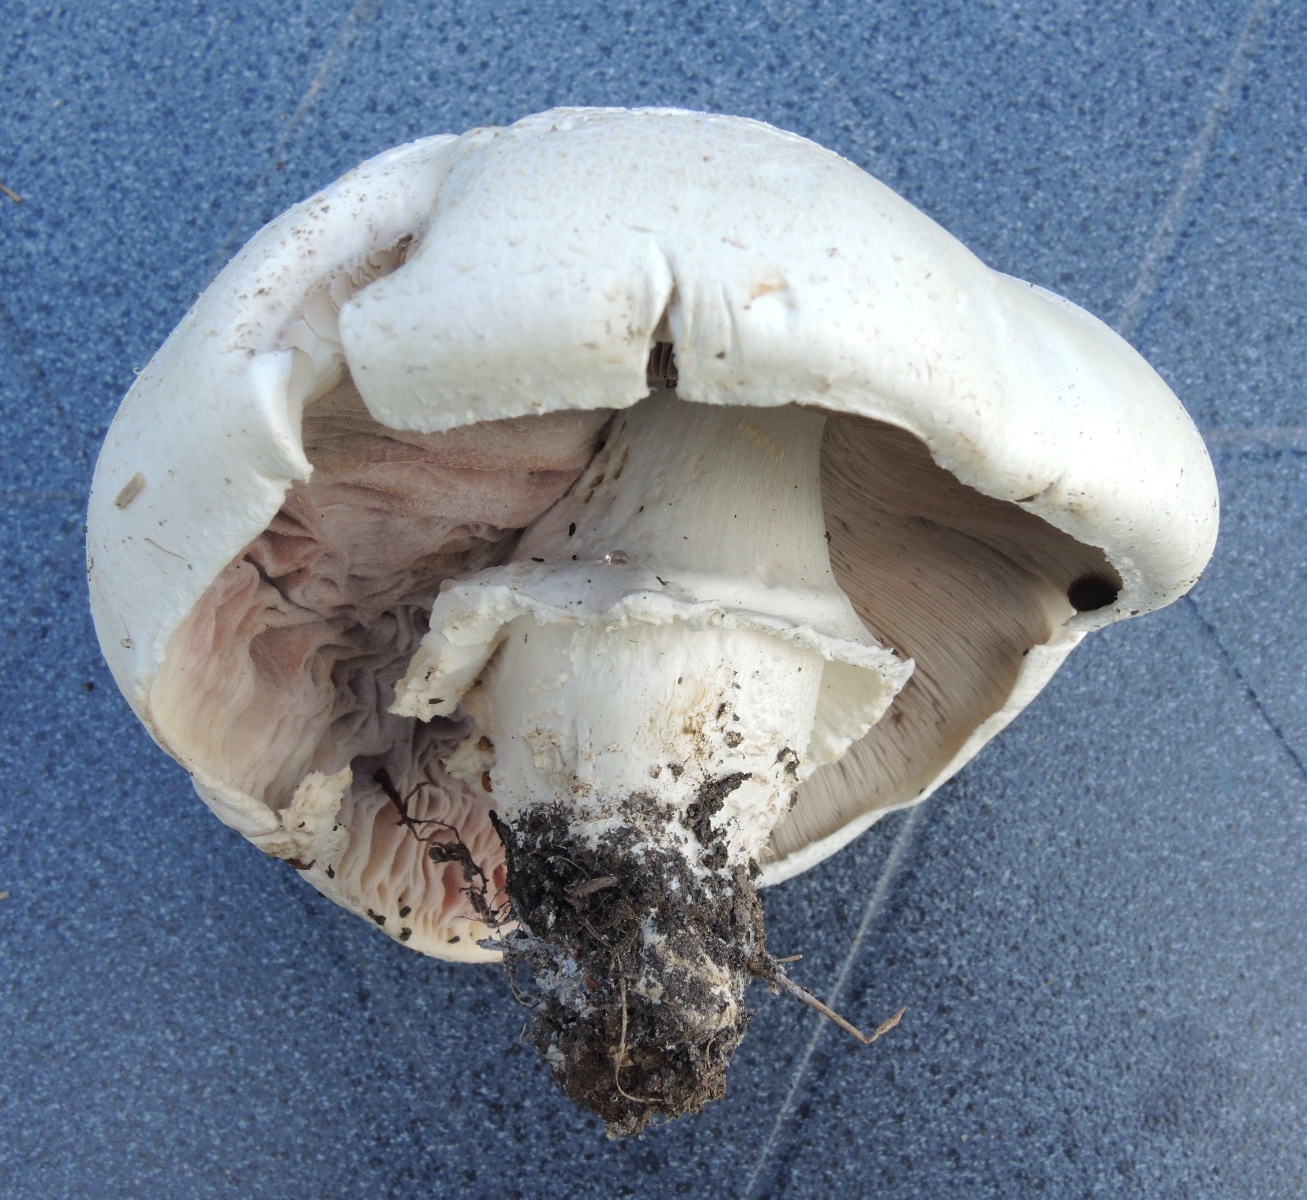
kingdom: Fungi
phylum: Basidiomycota
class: Agaricomycetes
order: Agaricales
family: Agaricaceae
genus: Agaricus
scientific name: Agaricus arvensis
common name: ager-champignon
